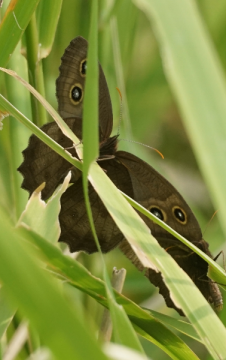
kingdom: Animalia
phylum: Arthropoda
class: Insecta
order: Lepidoptera
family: Nymphalidae
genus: Cercyonis
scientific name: Cercyonis pegala
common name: Common Wood-Nymph
